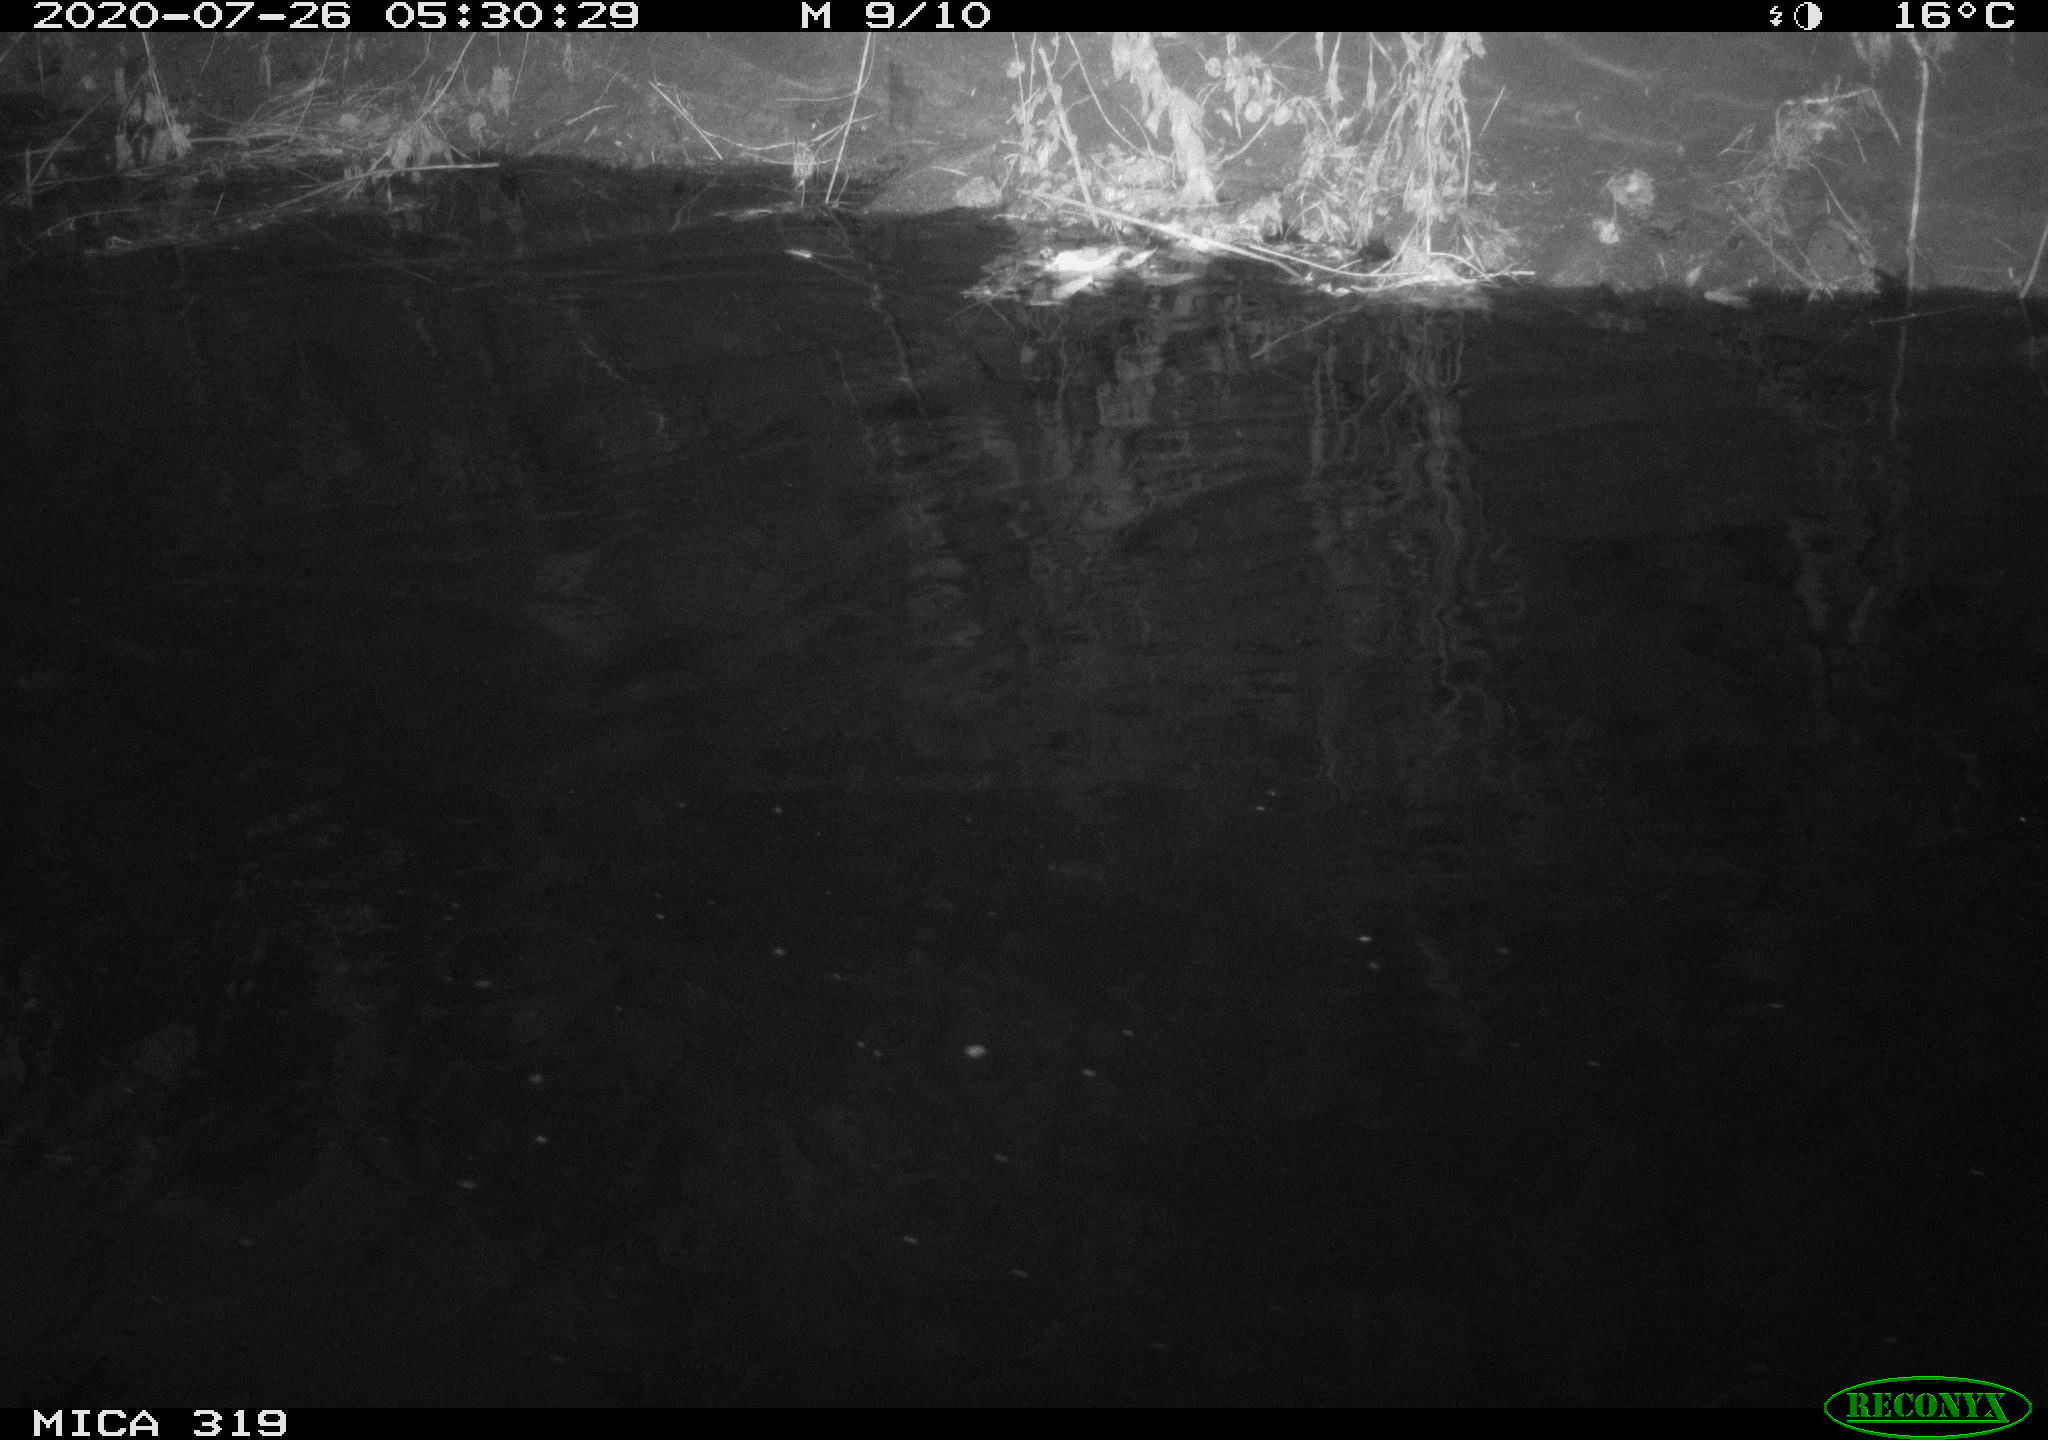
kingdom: Animalia
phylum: Chordata
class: Aves
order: Anseriformes
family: Anatidae
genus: Anas
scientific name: Anas platyrhynchos
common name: Mallard
